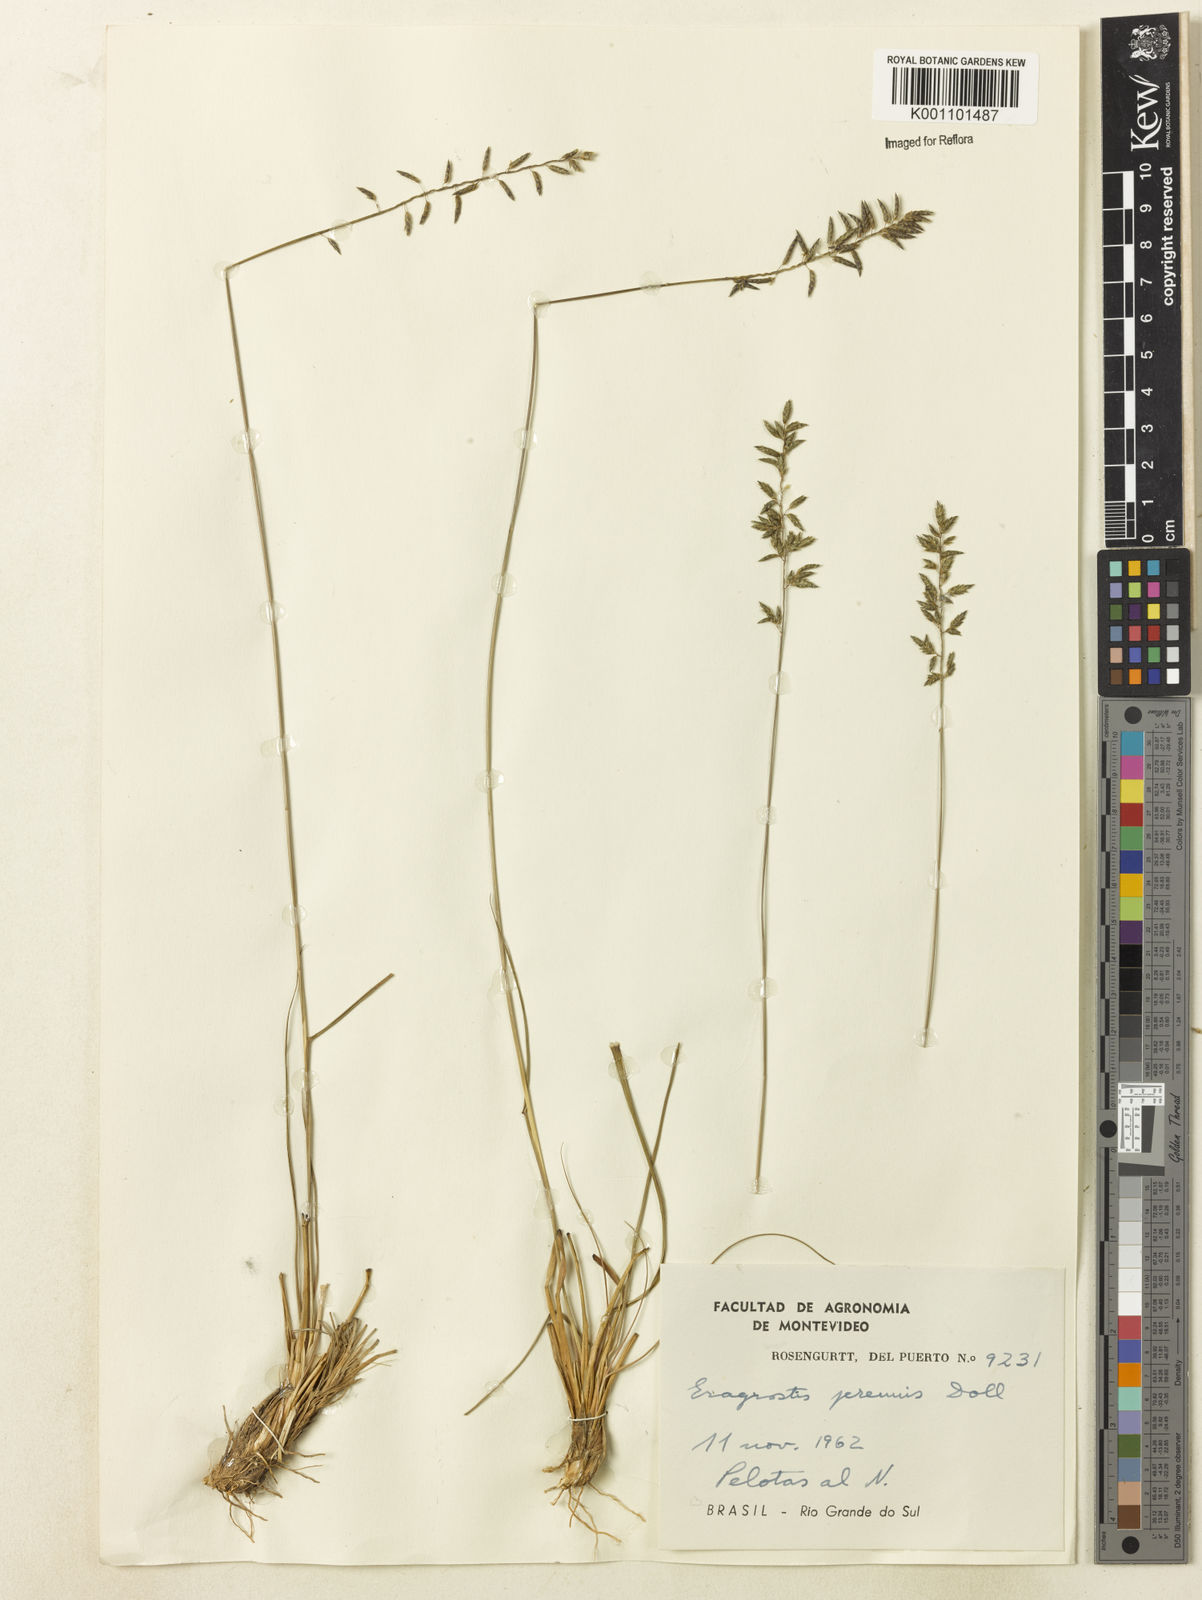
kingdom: Plantae
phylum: Tracheophyta
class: Liliopsida
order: Poales
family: Poaceae
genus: Eragrostis
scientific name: Eragrostis
